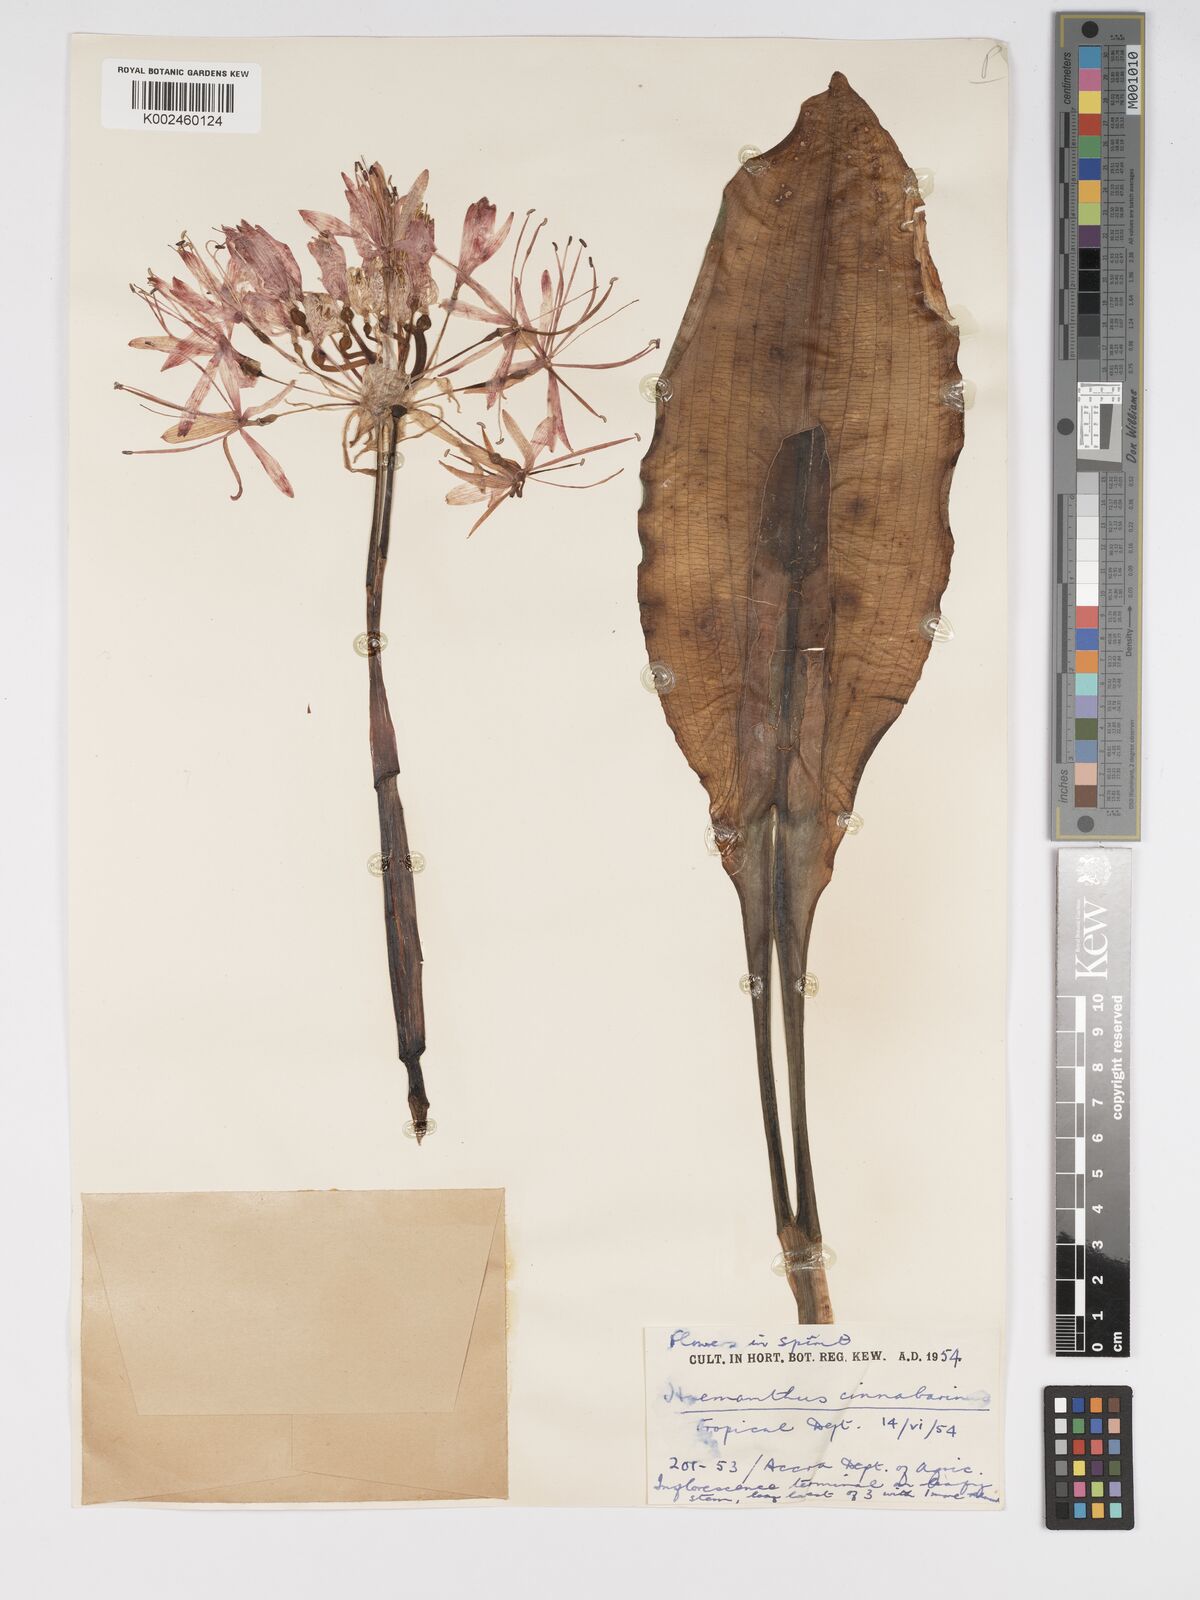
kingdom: Plantae
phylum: Tracheophyta
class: Liliopsida
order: Asparagales
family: Amaryllidaceae
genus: Scadoxus
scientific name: Scadoxus cinnabarinus
